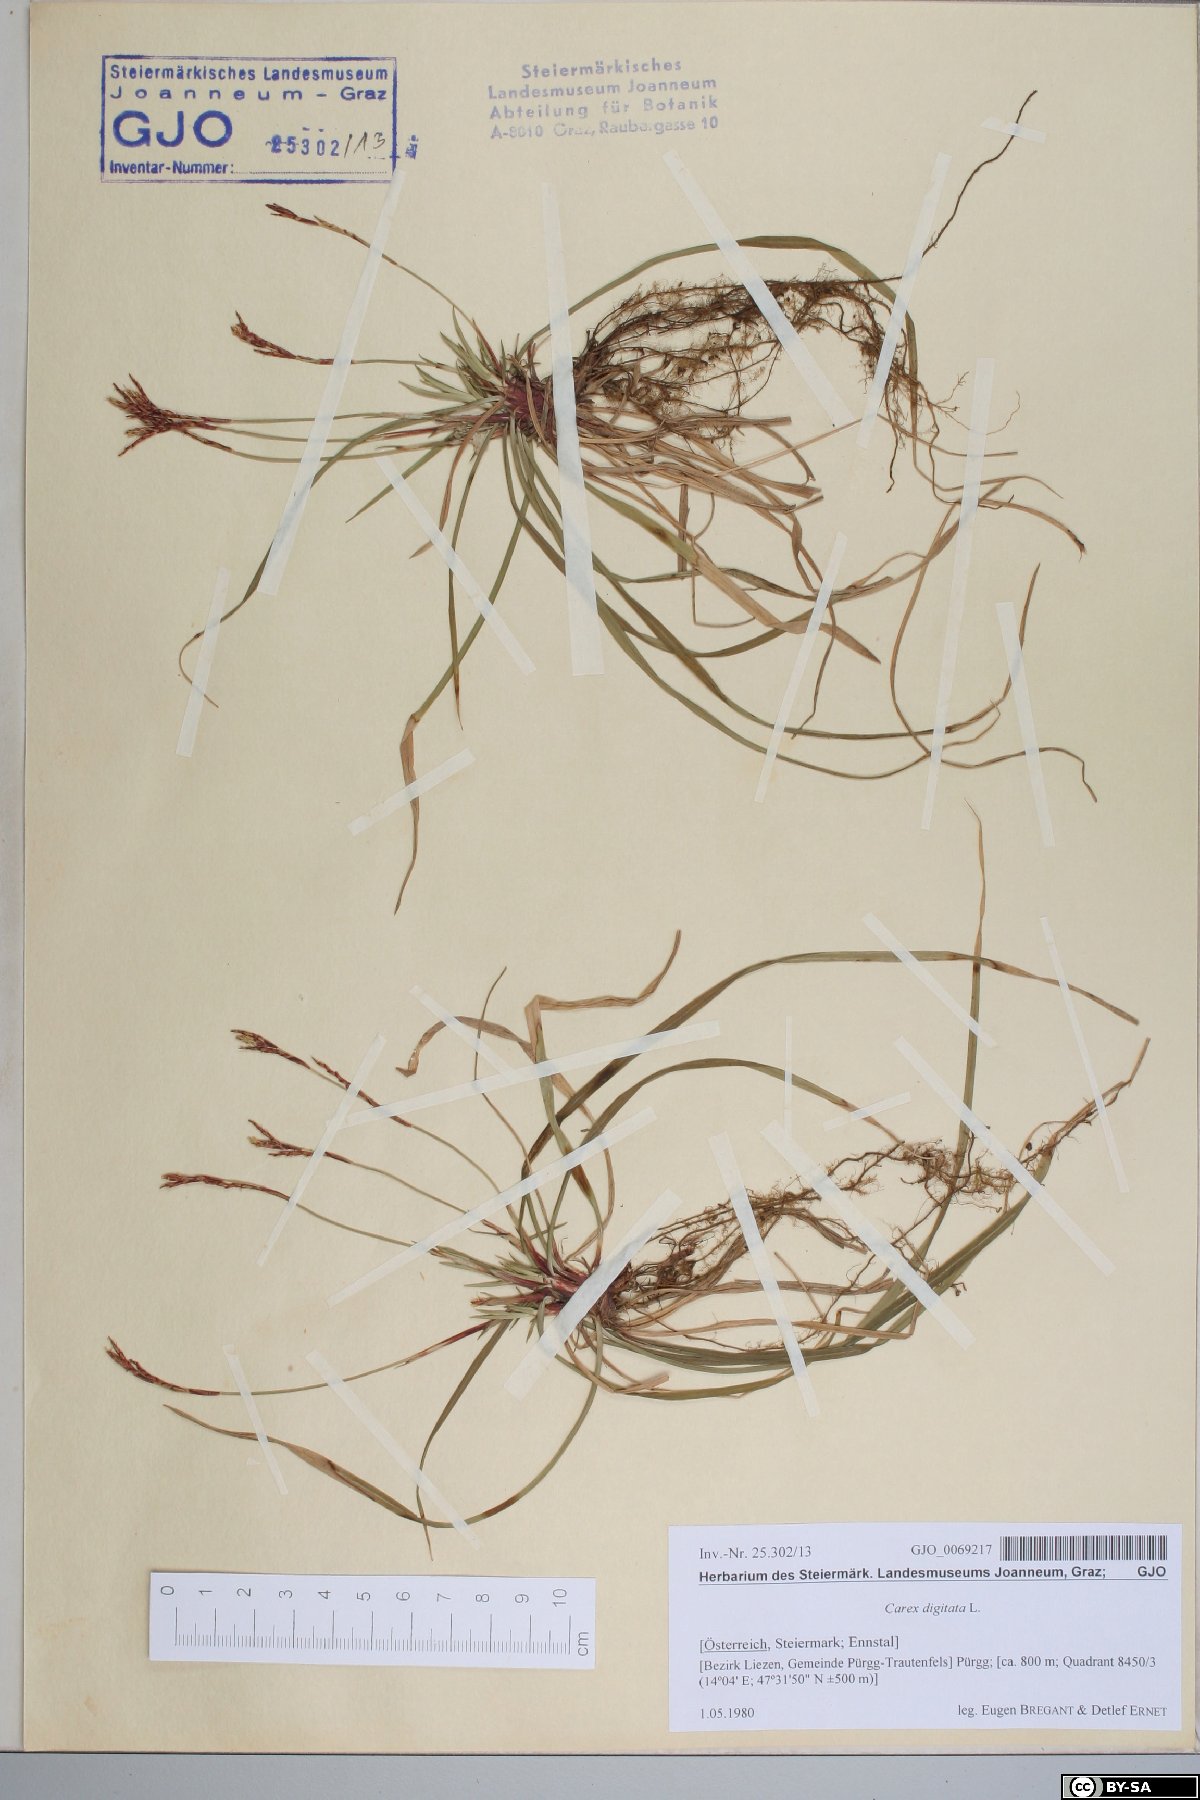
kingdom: Plantae
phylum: Tracheophyta
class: Liliopsida
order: Poales
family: Cyperaceae
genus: Carex
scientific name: Carex digitata
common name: Fingered sedge
